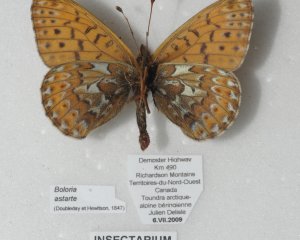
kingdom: Animalia
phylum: Arthropoda
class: Insecta
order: Lepidoptera
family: Nymphalidae
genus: Clossiana
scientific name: Clossiana astarte
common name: Astarte Fritillary
